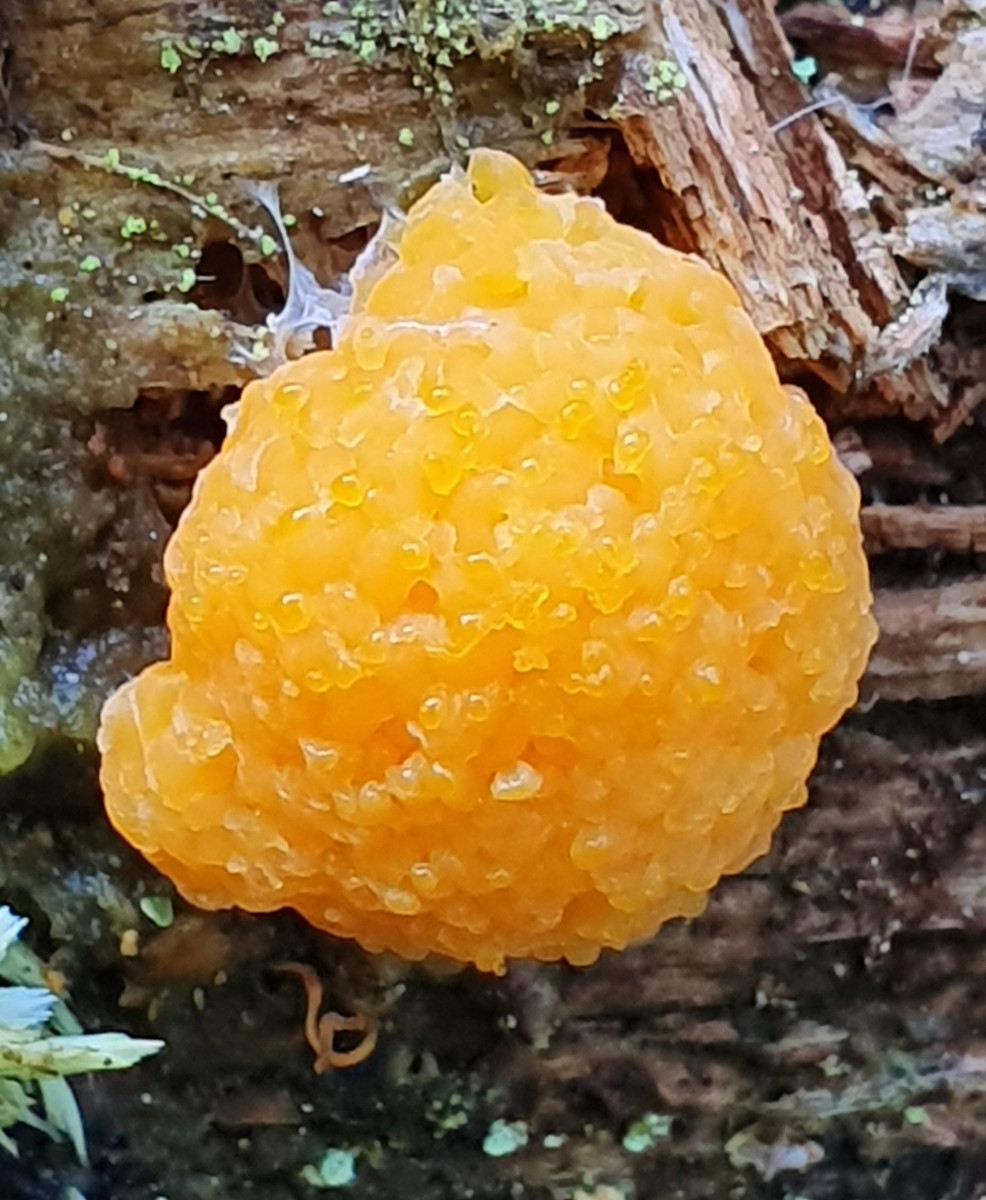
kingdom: Protozoa
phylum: Mycetozoa
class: Myxomycetes
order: Cribrariales
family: Tubiferaceae
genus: Tubifera
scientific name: Tubifera ferruginosa
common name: kanel-støvrør
